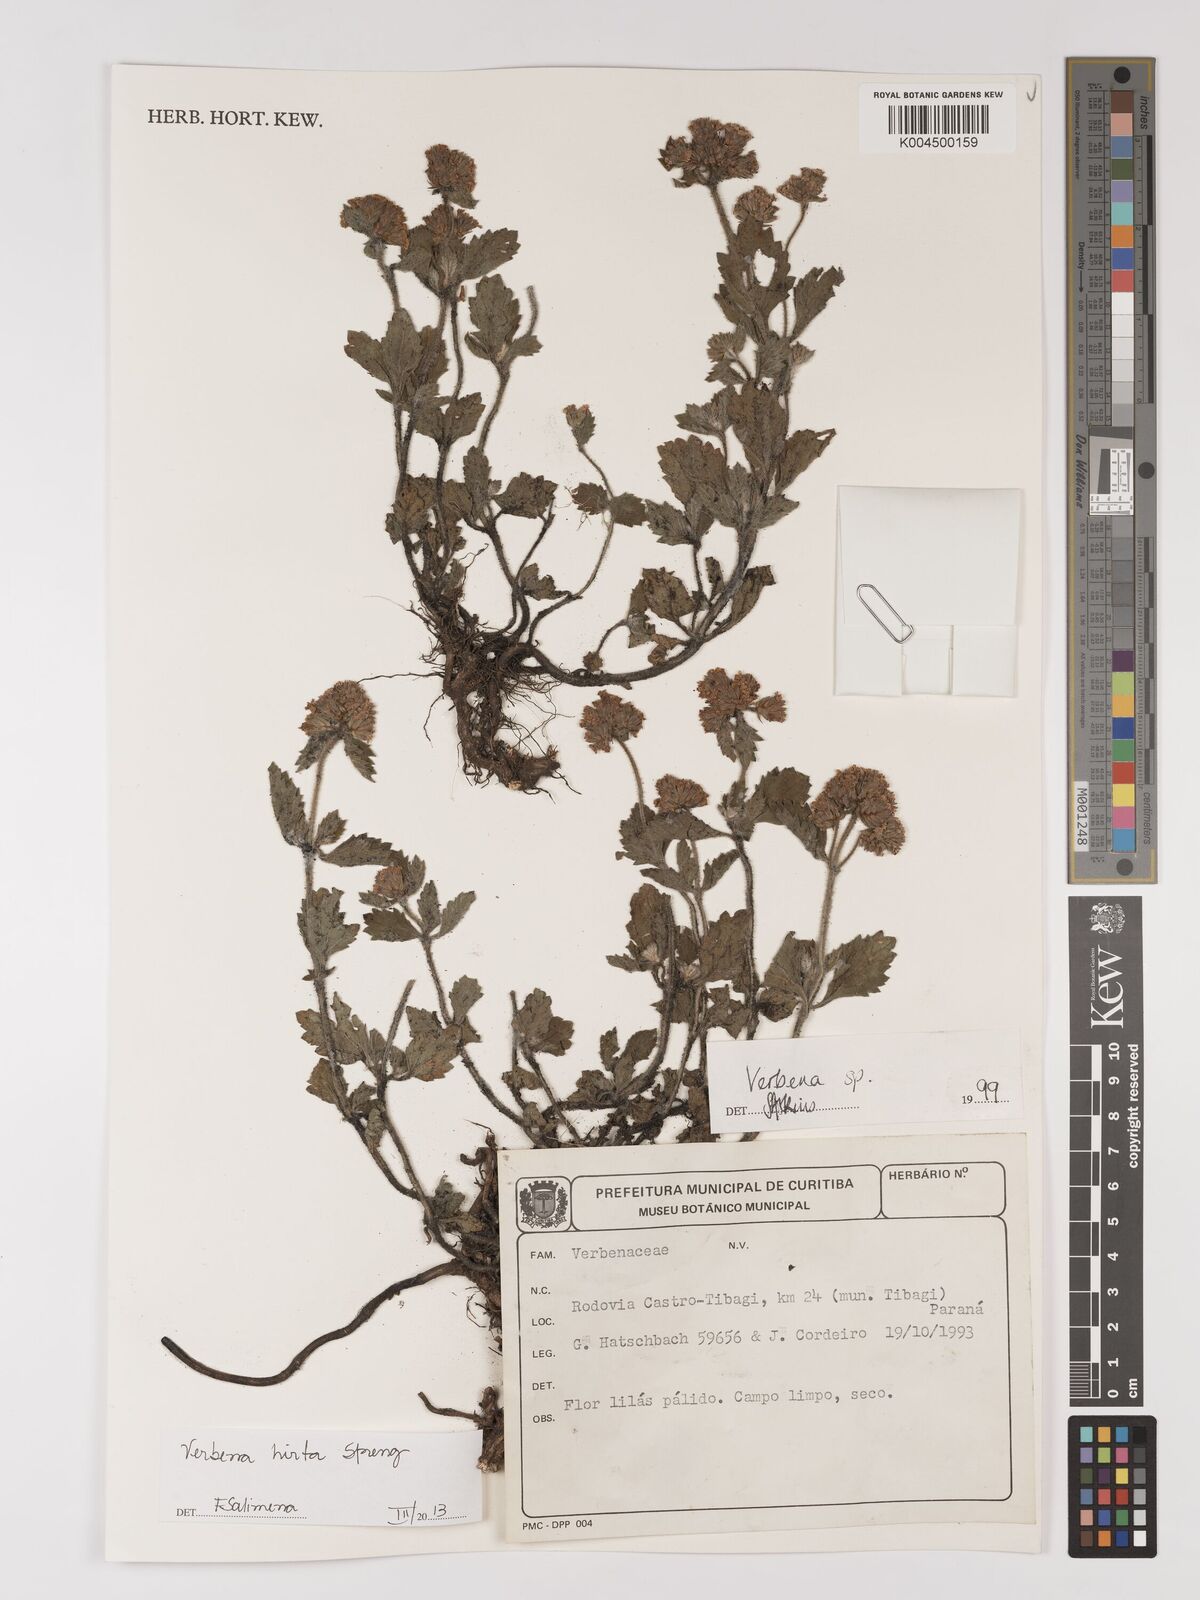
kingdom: Plantae
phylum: Tracheophyta
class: Magnoliopsida
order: Lamiales
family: Verbenaceae
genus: Verbena
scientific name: Verbena hirta
